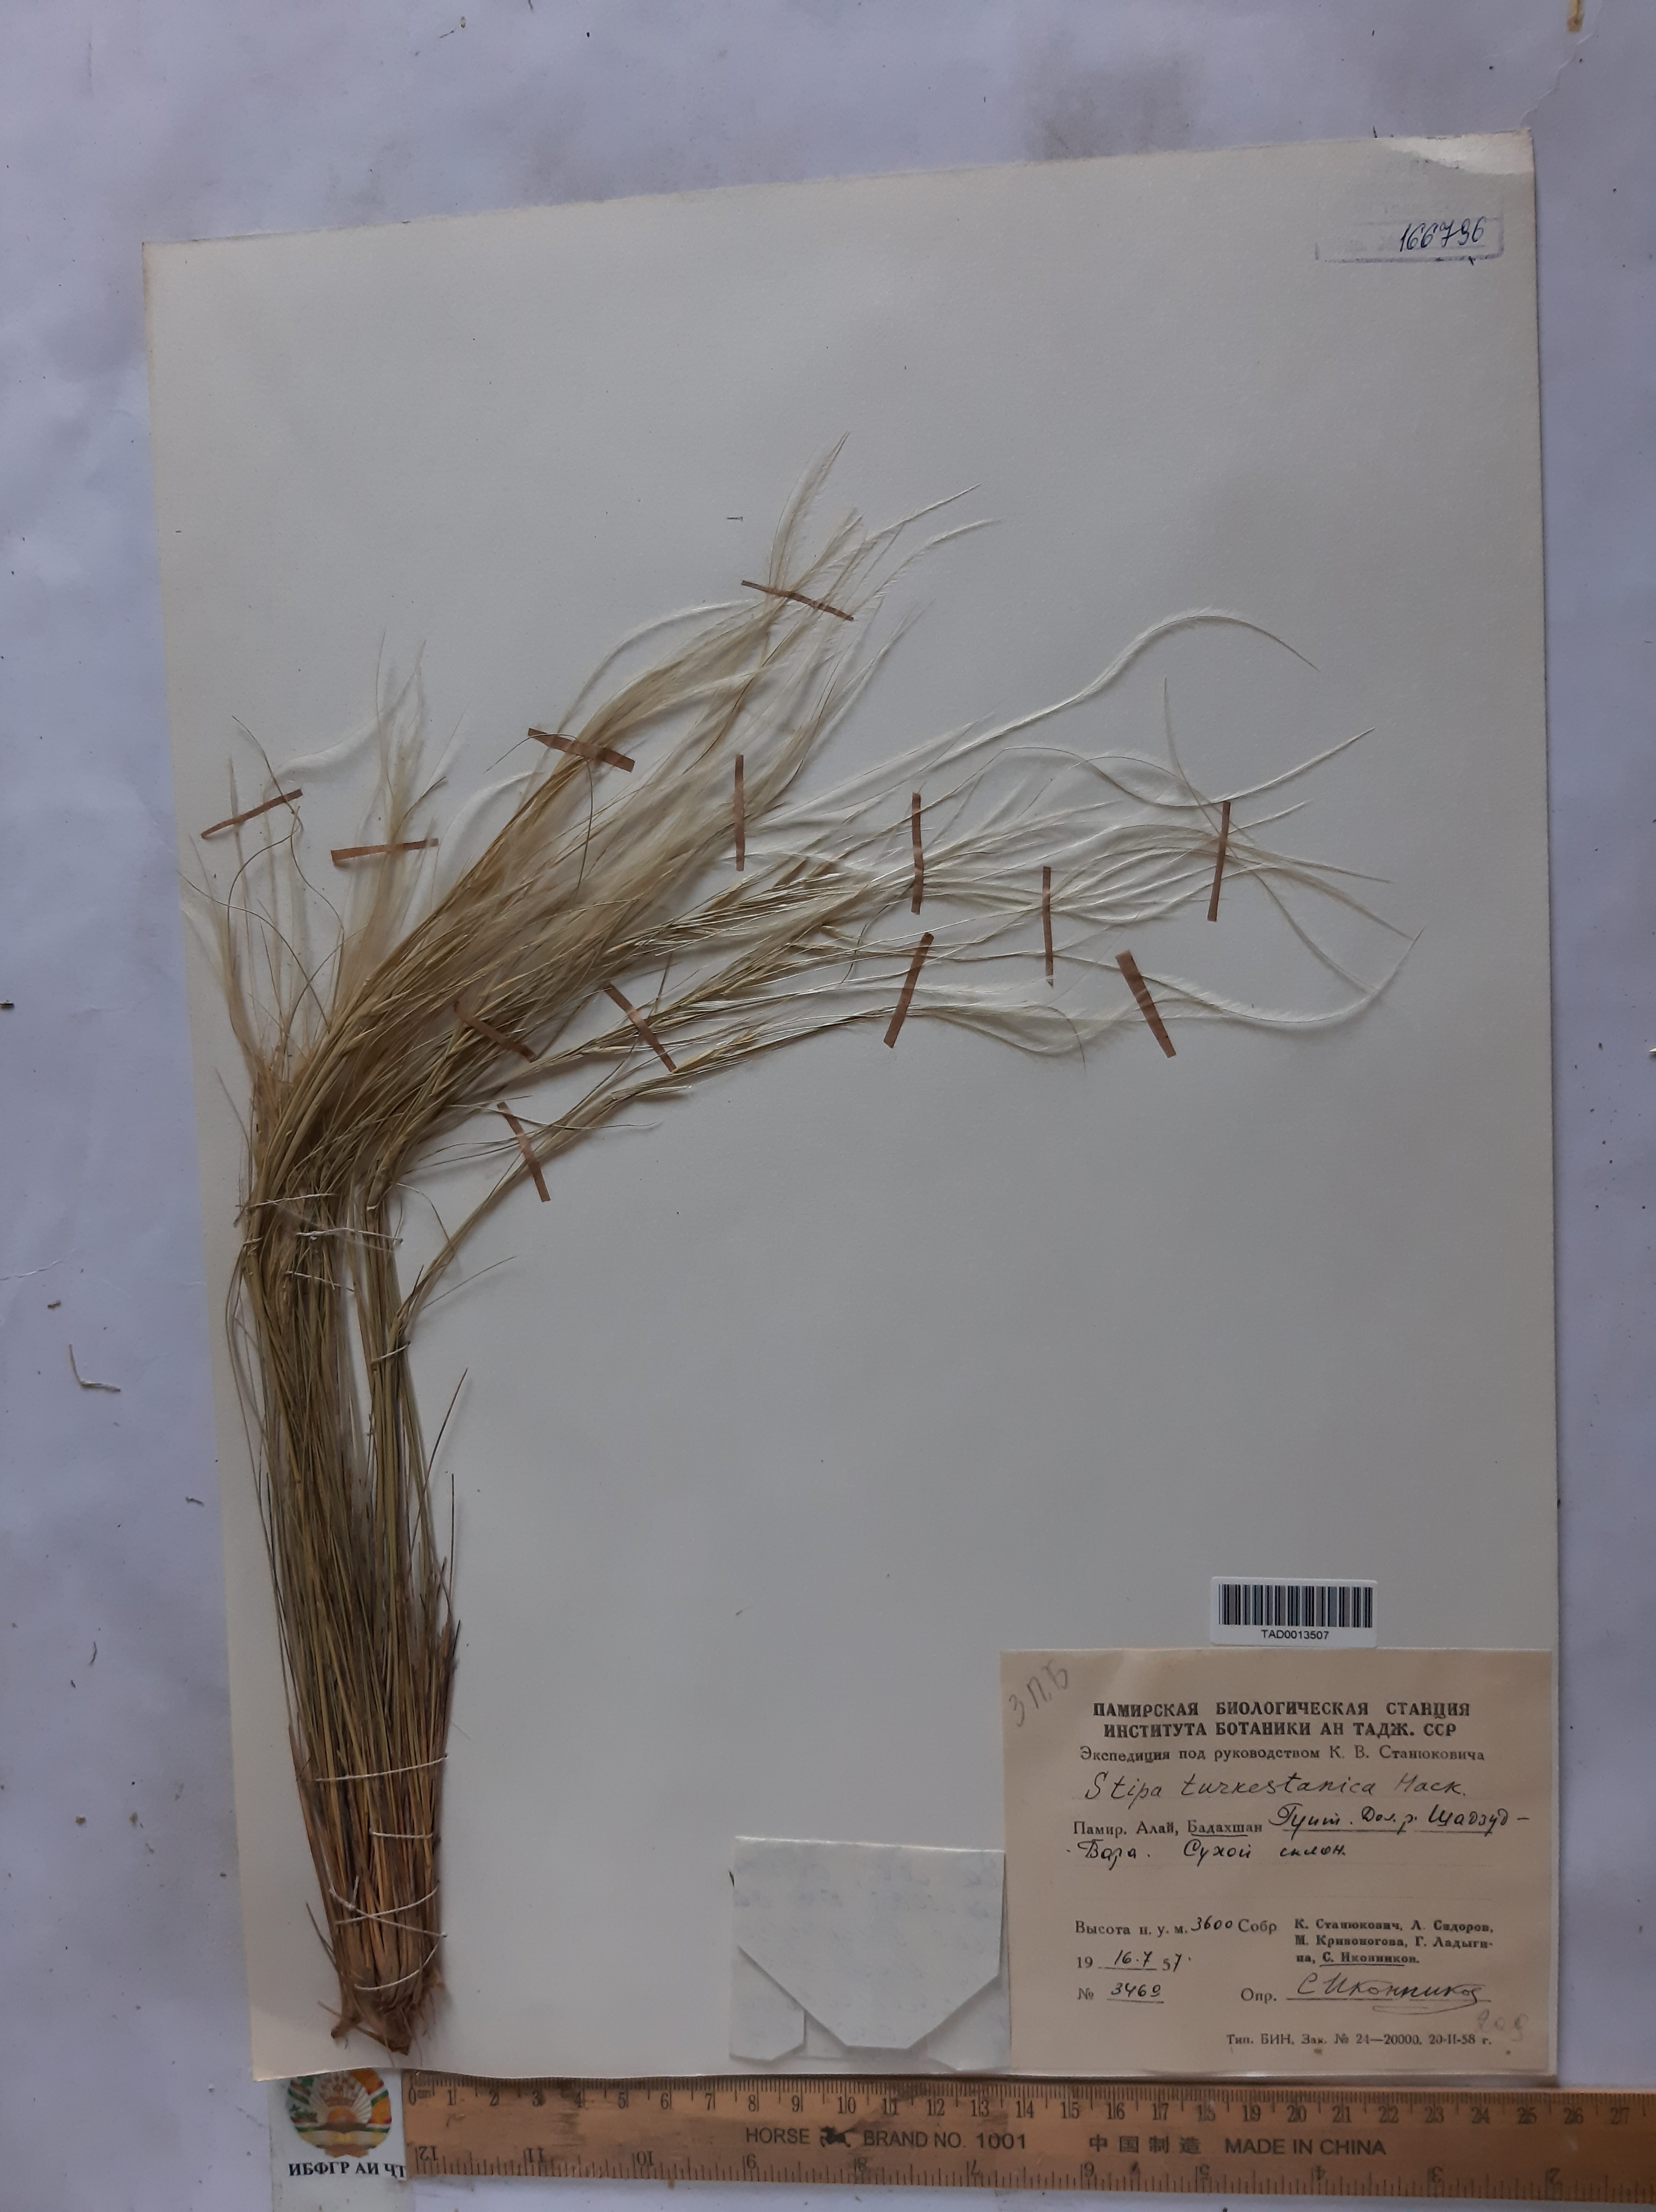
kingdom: Plantae
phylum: Tracheophyta
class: Liliopsida
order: Poales
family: Poaceae
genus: Stipa
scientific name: Stipa turkestanica
